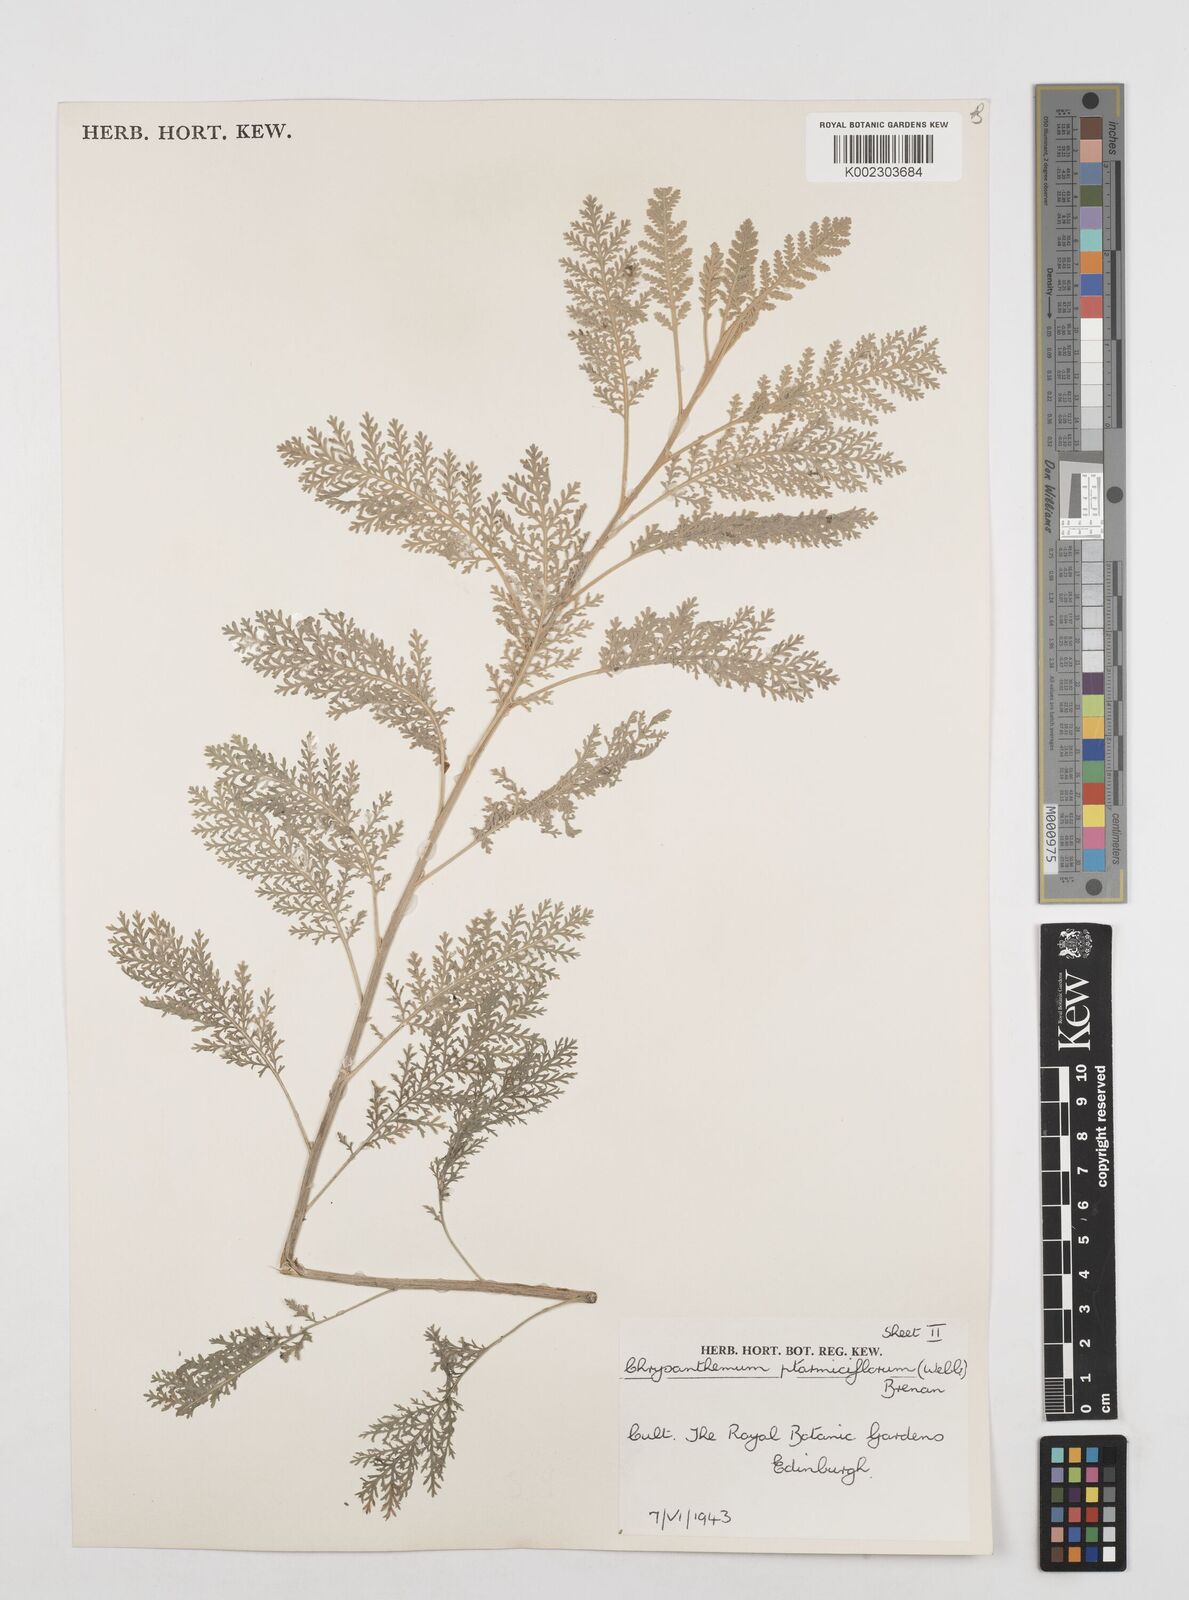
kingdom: Plantae
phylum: Tracheophyta
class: Magnoliopsida
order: Asterales
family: Asteraceae
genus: Gonospermum
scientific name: Gonospermum ptarmiciflorum
